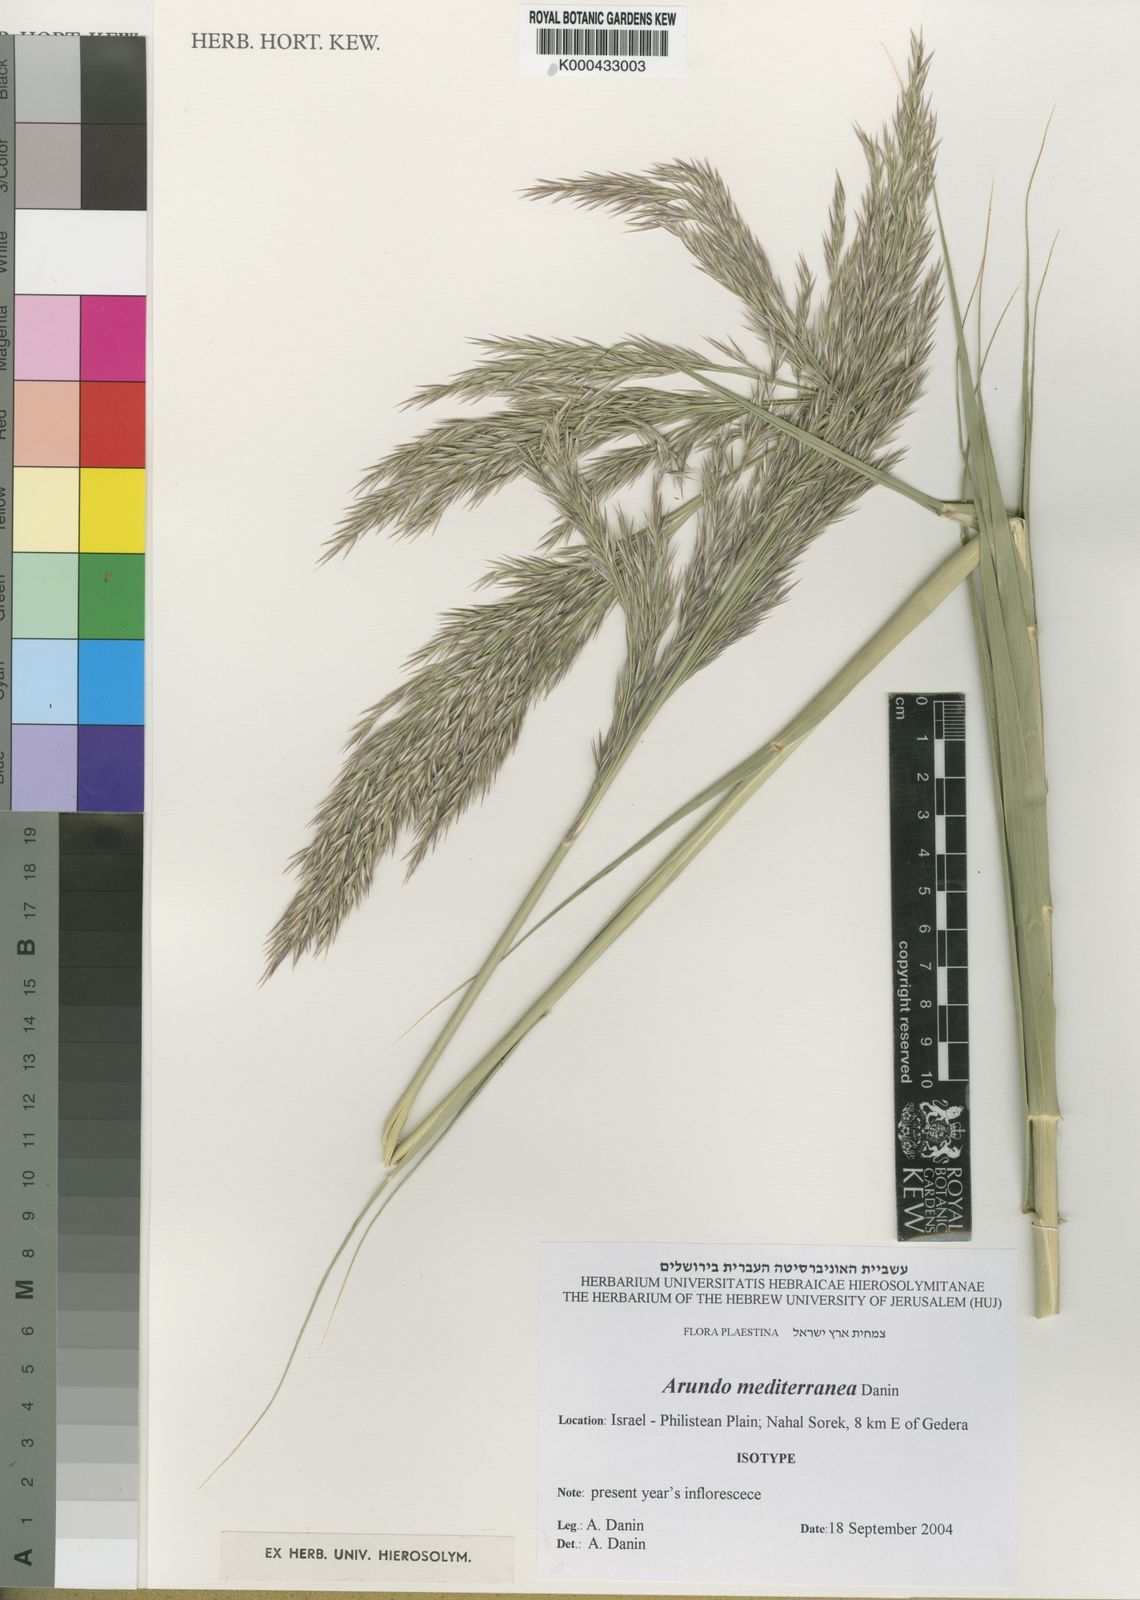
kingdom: Plantae
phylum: Tracheophyta
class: Liliopsida
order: Poales
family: Poaceae
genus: Arundo
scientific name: Arundo micrantha
